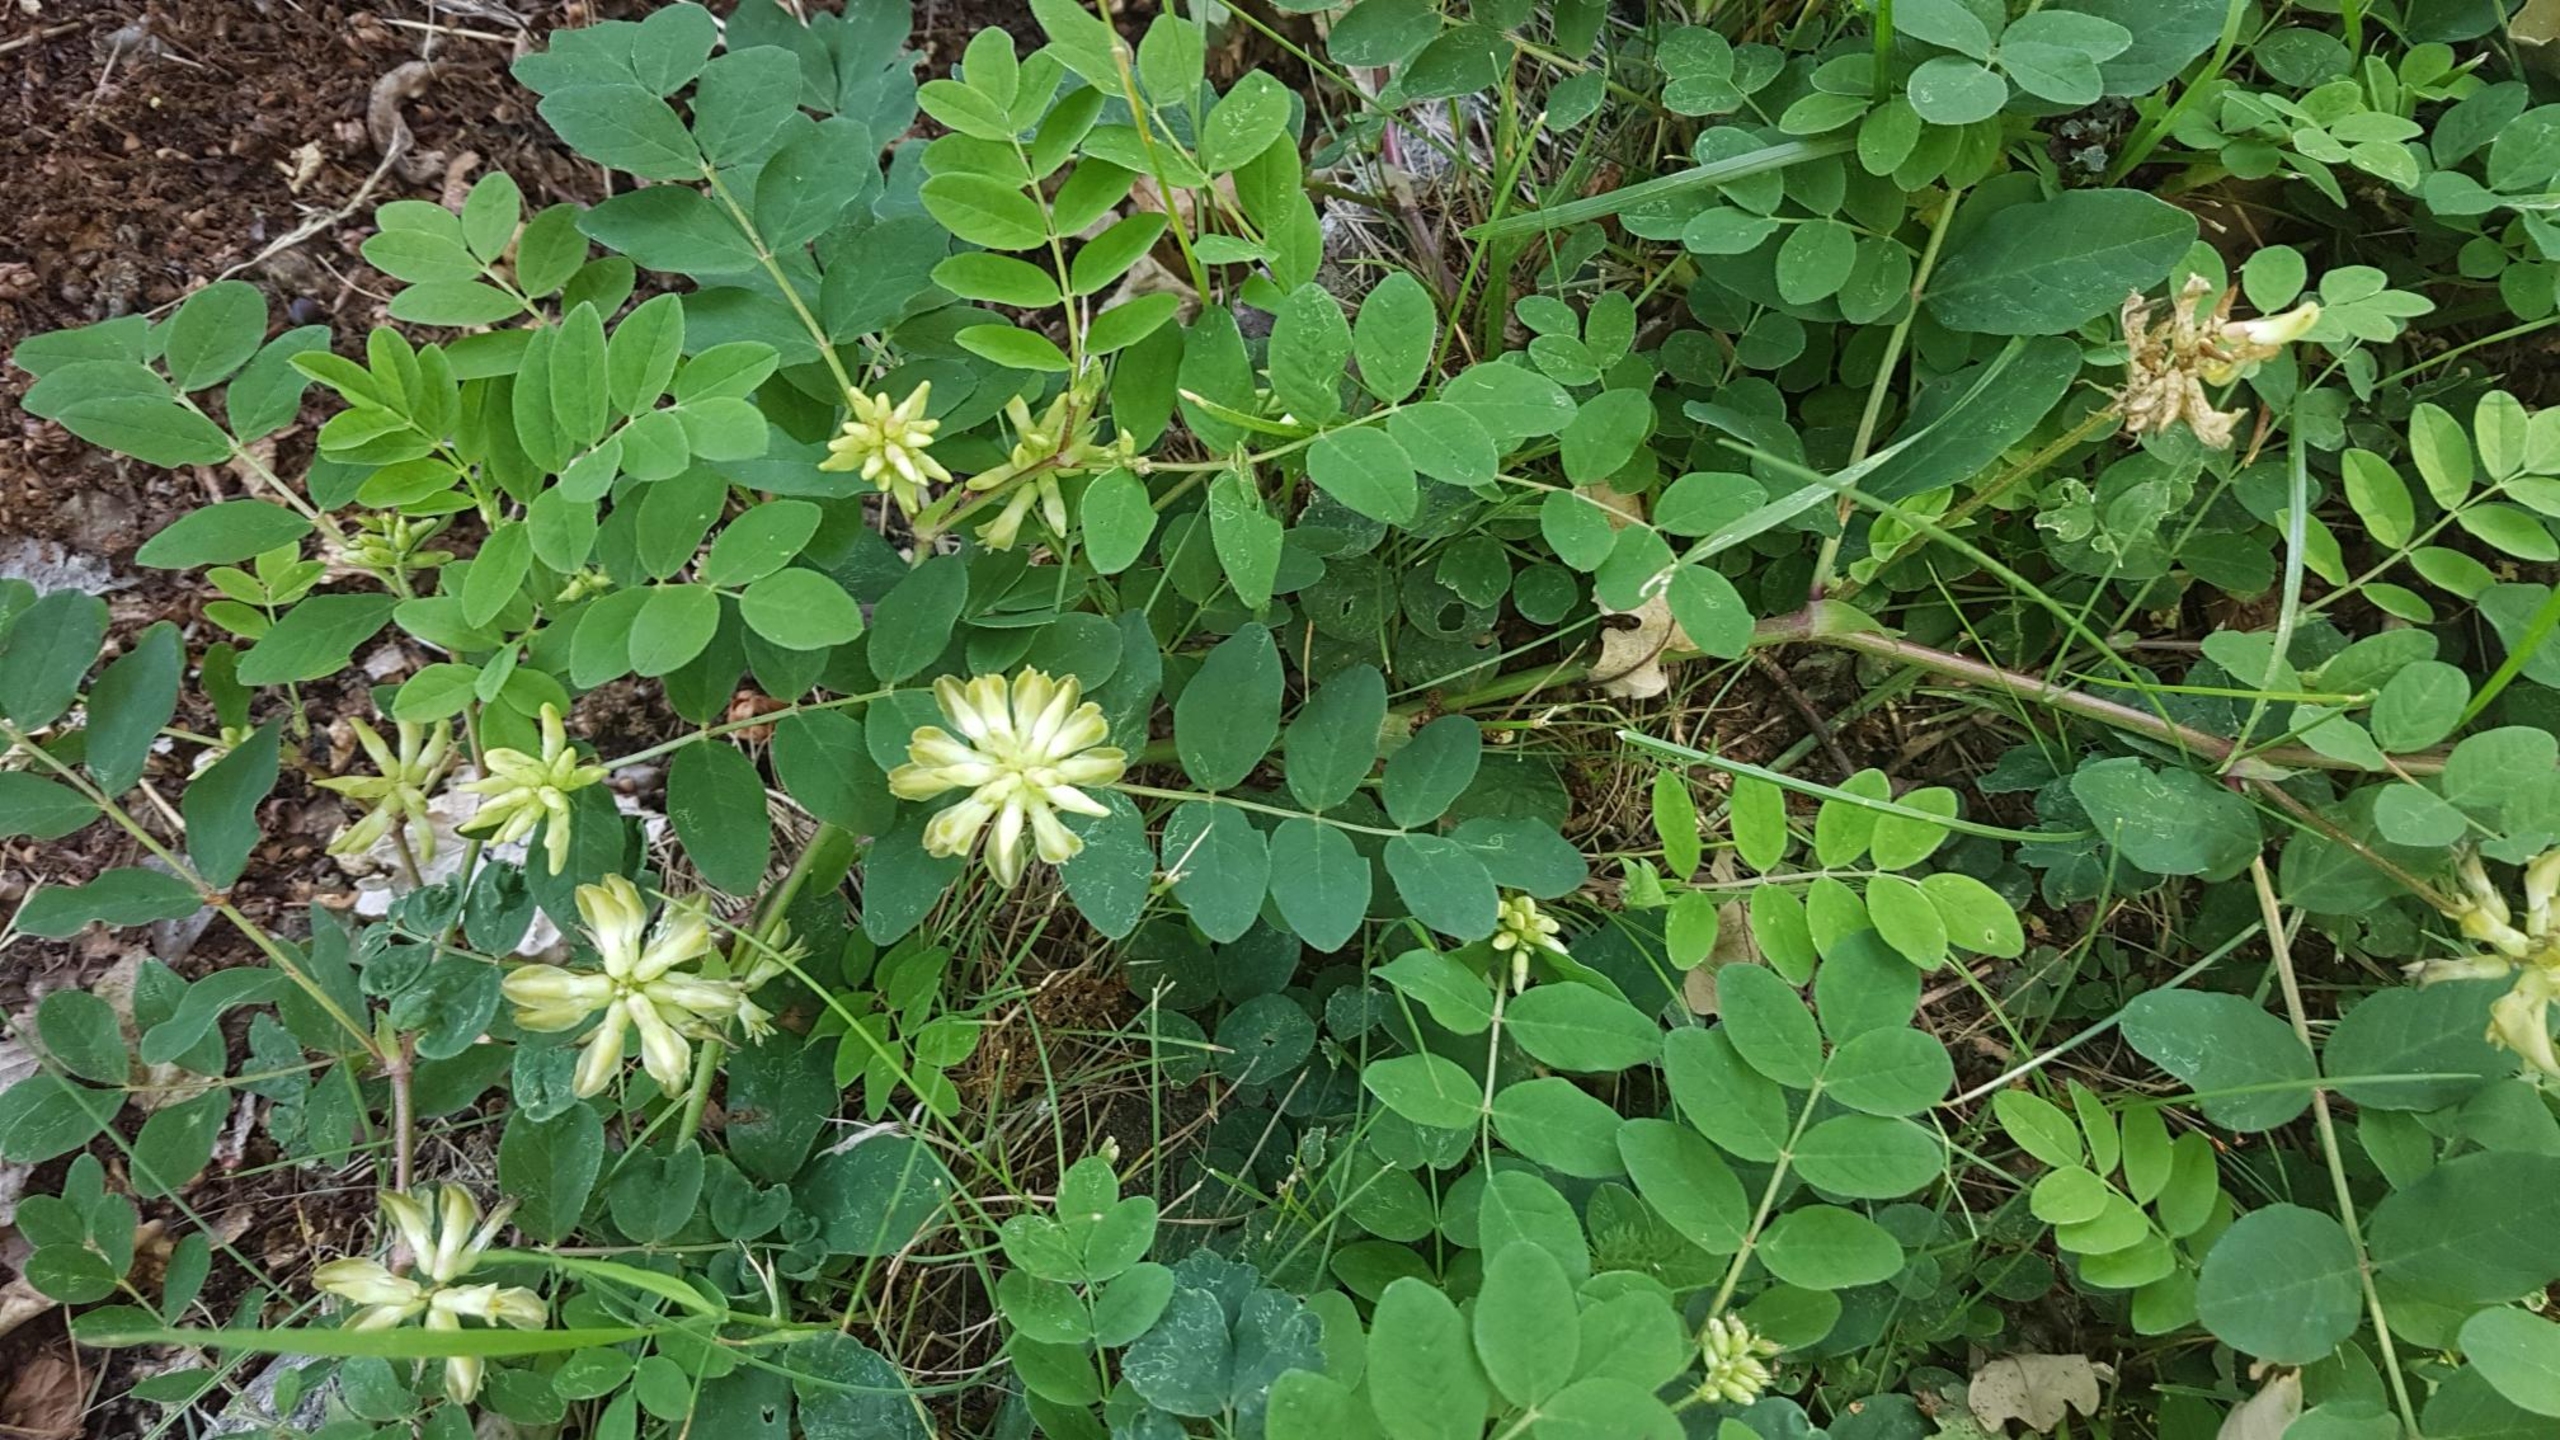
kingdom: Plantae
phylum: Tracheophyta
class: Magnoliopsida
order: Fabales
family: Fabaceae
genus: Astragalus
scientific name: Astragalus glycyphyllos
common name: Sød astragel
